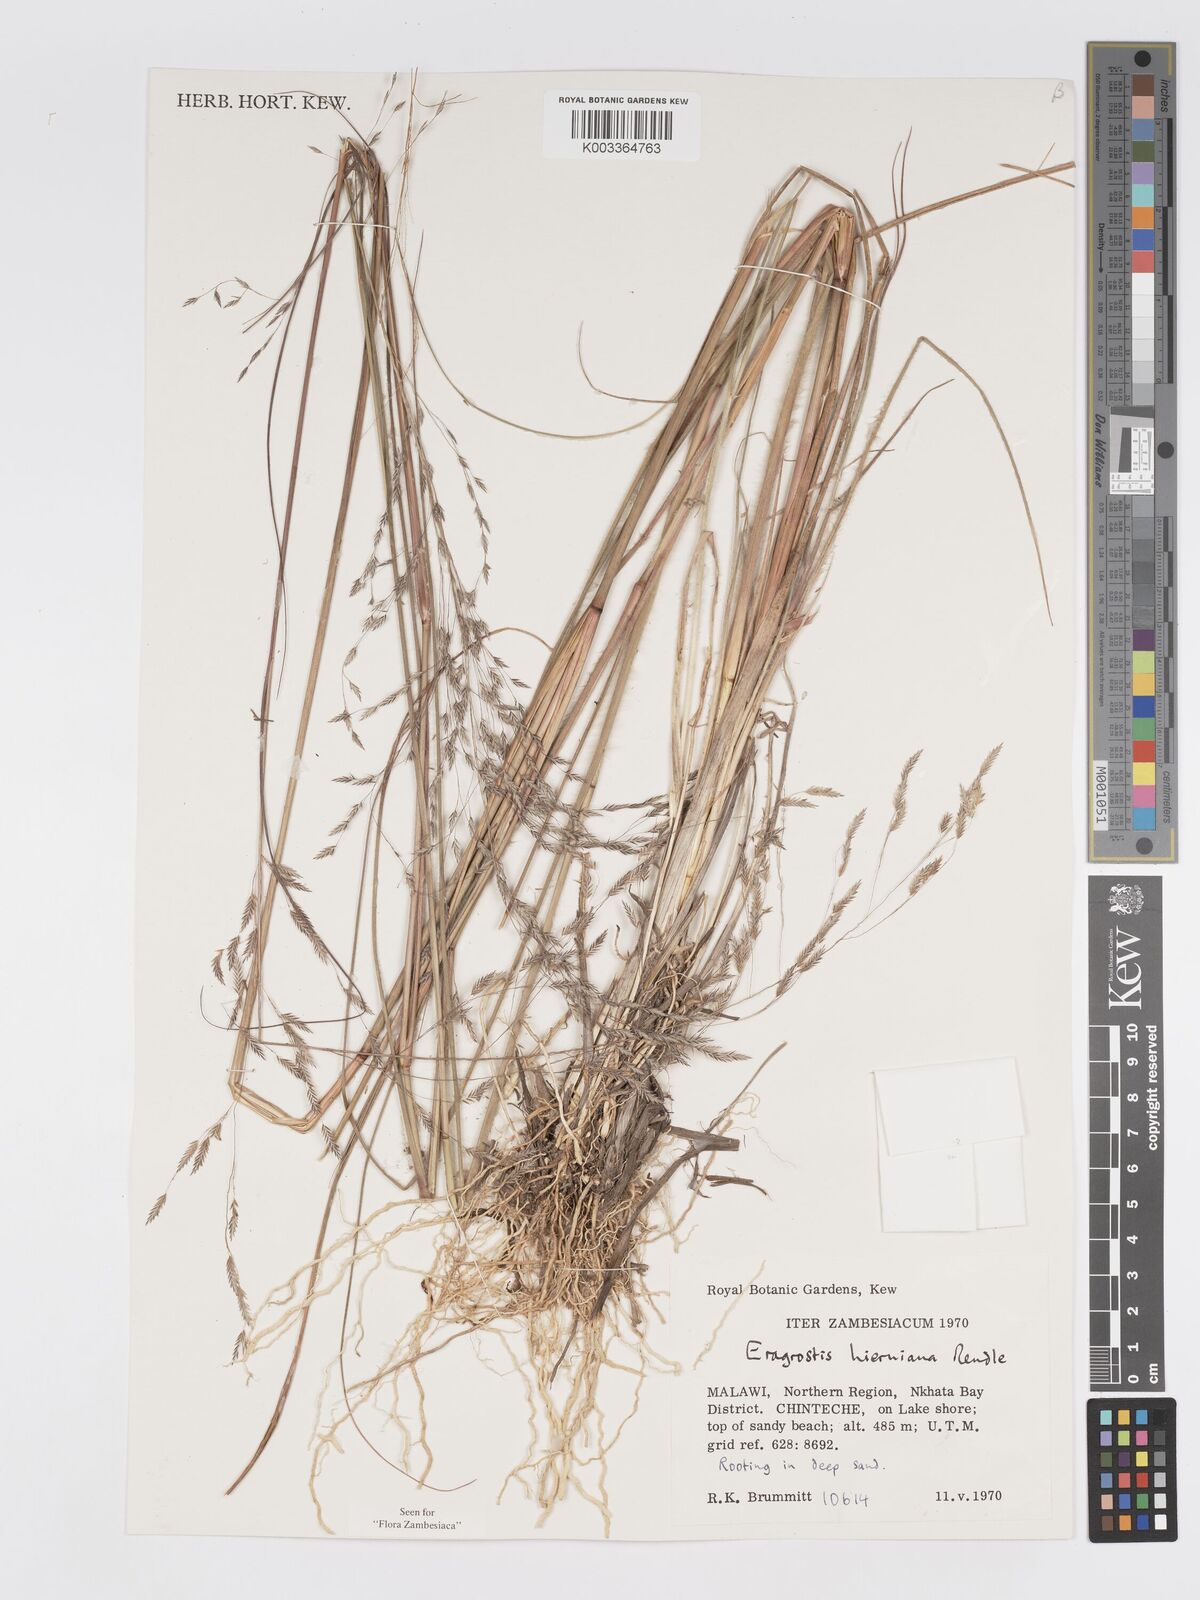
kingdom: Plantae
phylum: Tracheophyta
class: Liliopsida
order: Poales
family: Poaceae
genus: Eragrostis
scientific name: Eragrostis hierniana
